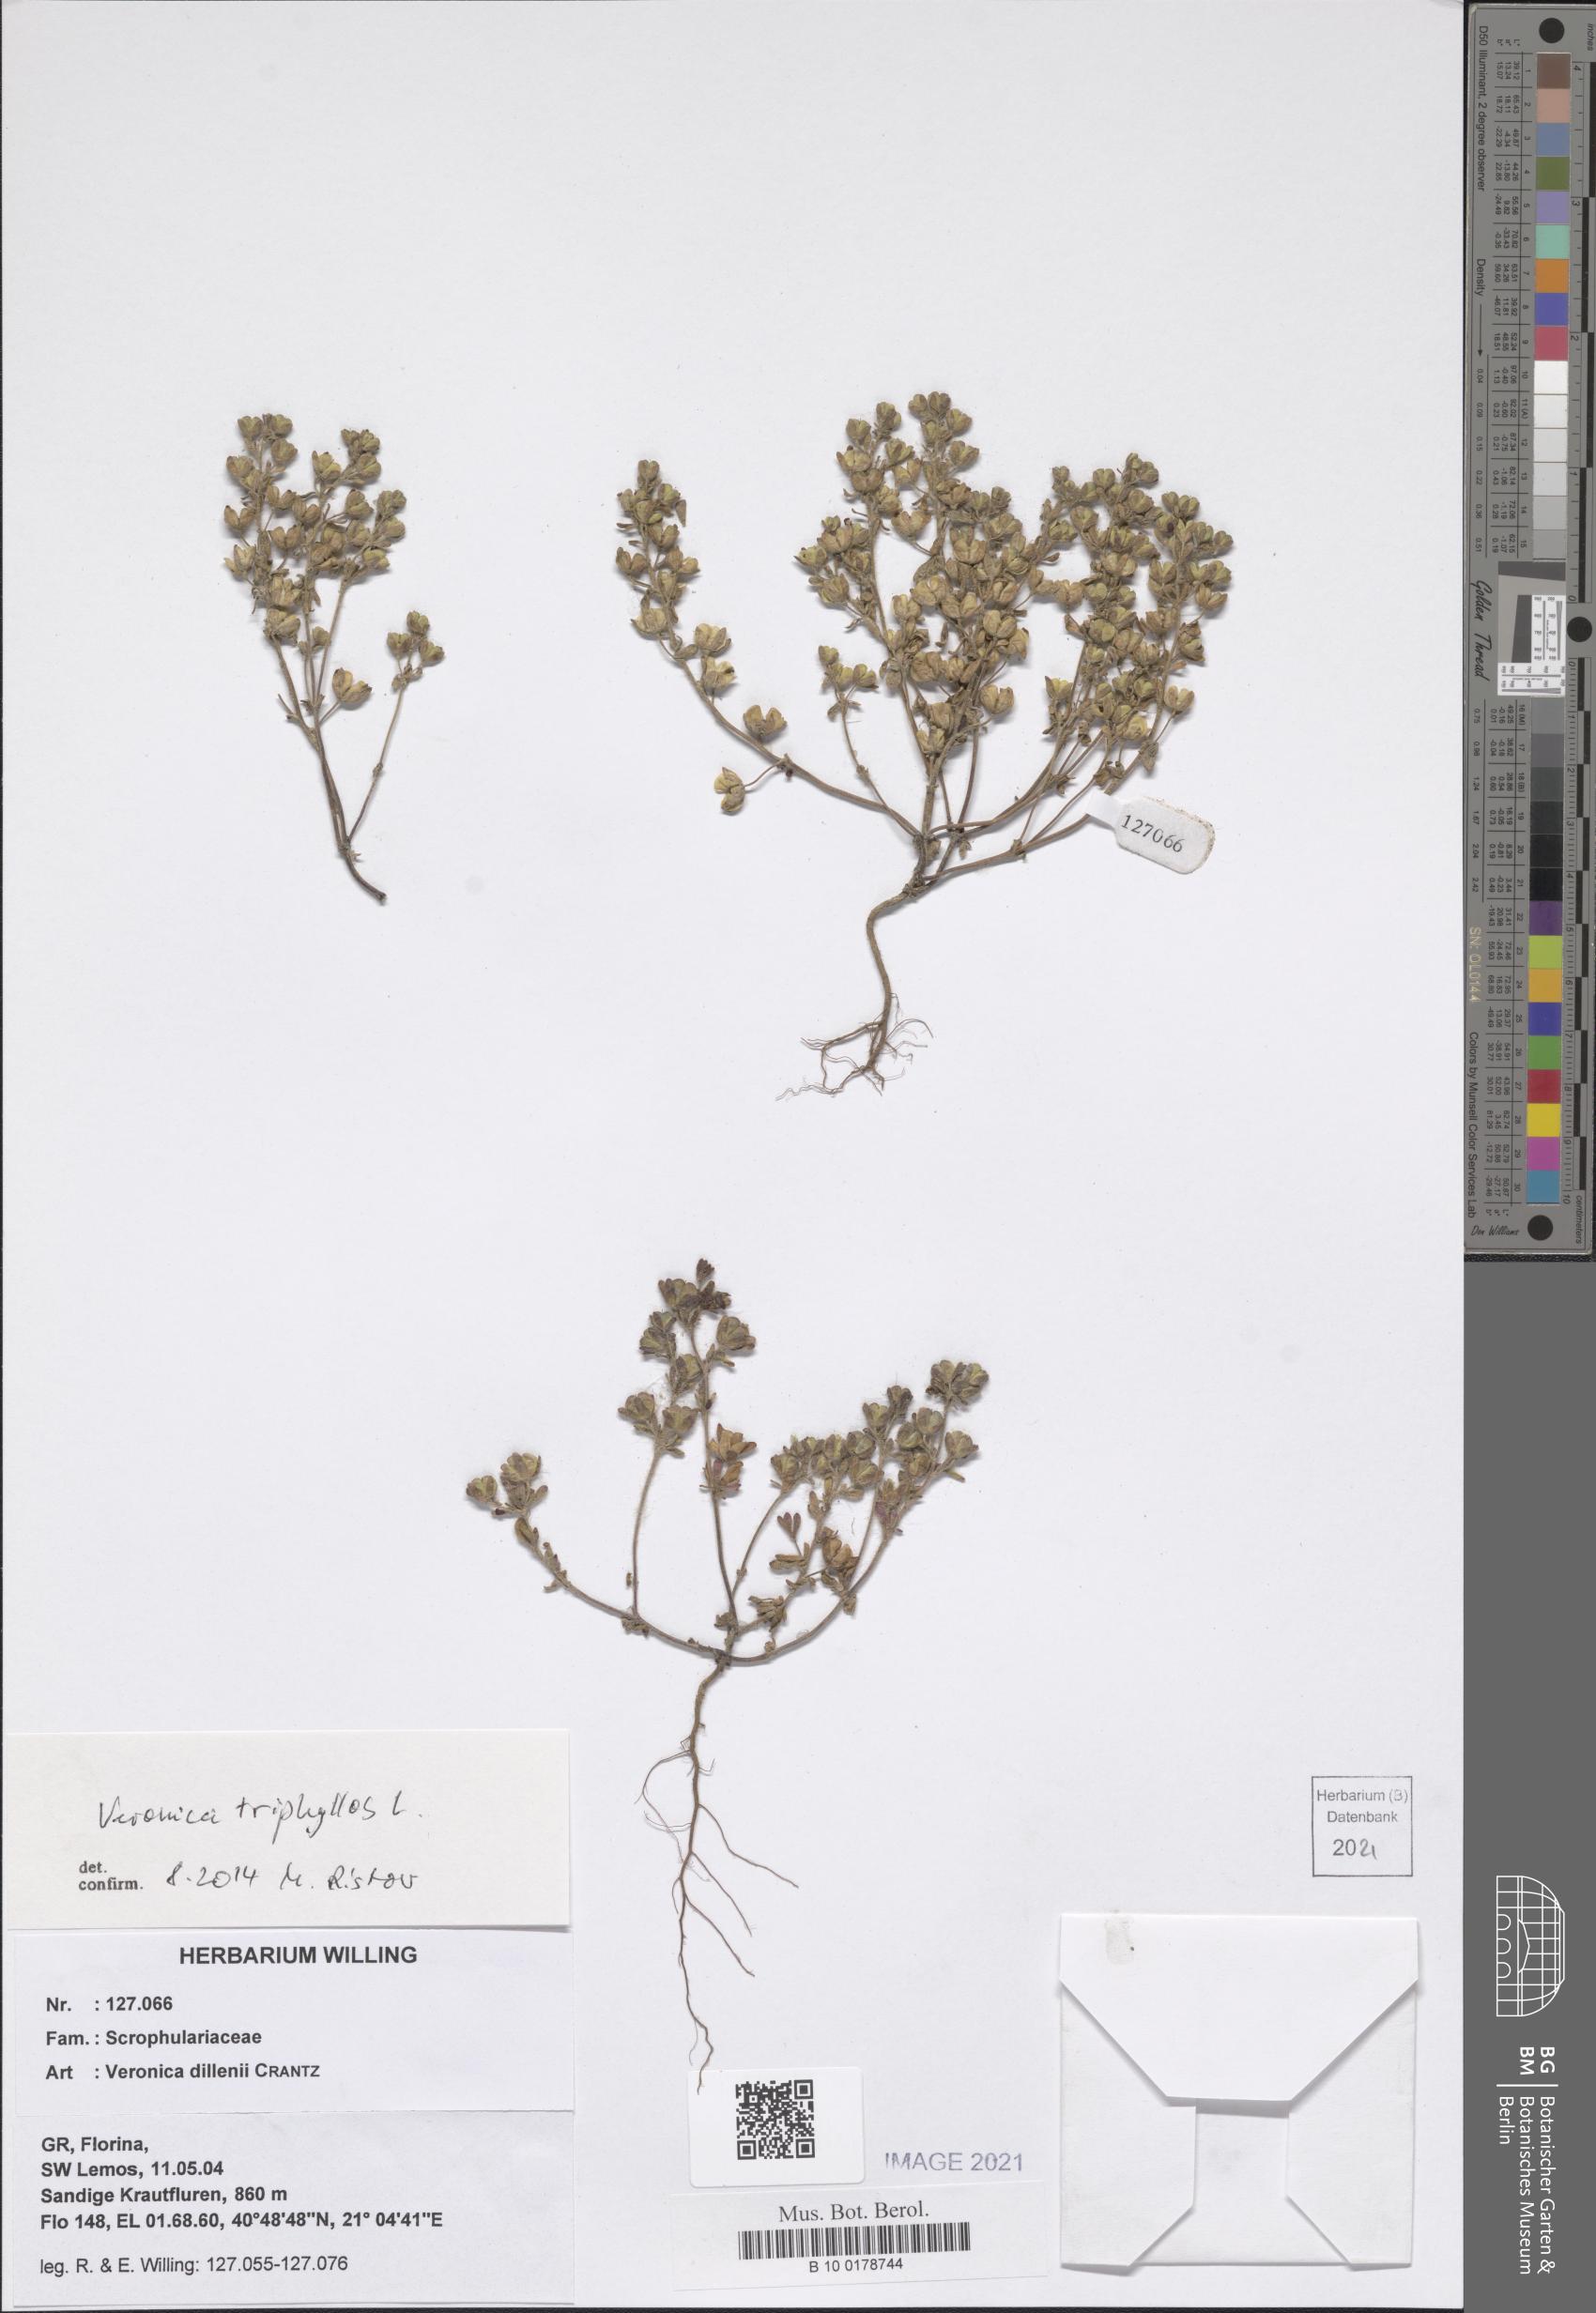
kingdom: Plantae
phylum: Tracheophyta
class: Magnoliopsida
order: Lamiales
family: Plantaginaceae
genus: Veronica
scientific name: Veronica triphyllos
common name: Fingered speedwell
